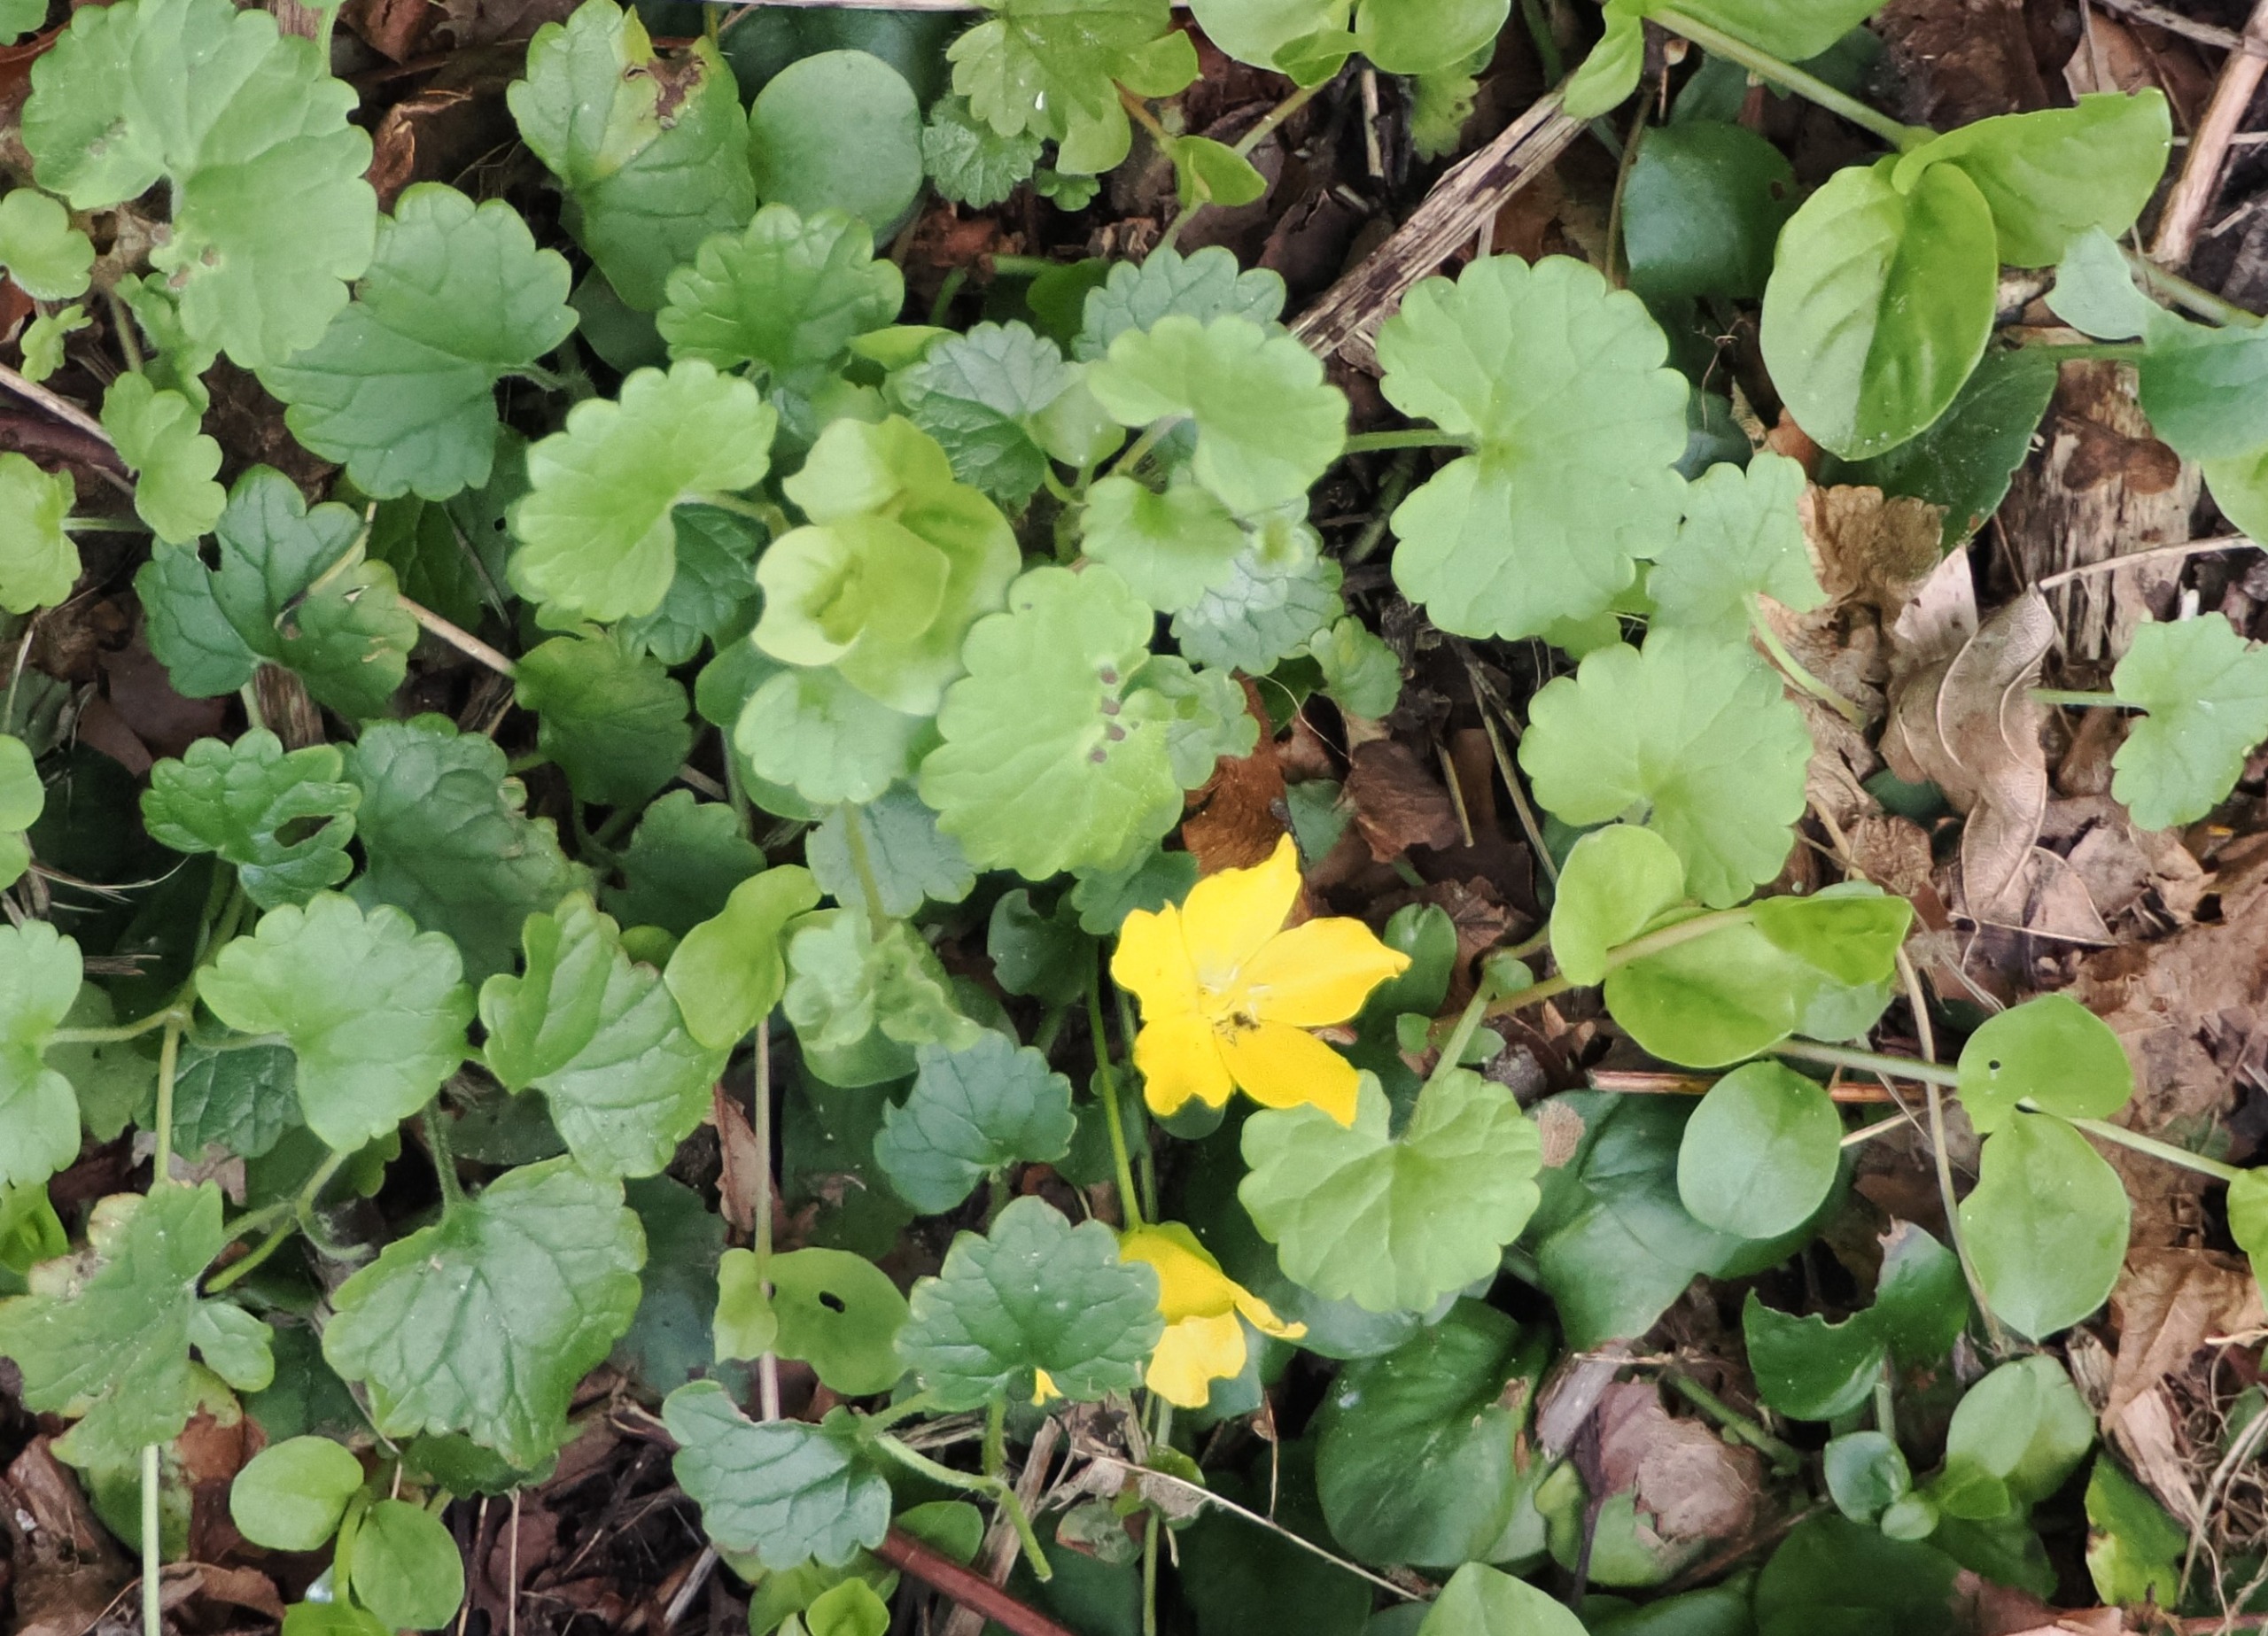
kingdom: Plantae
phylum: Tracheophyta
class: Magnoliopsida
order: Ericales
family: Primulaceae
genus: Lysimachia
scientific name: Lysimachia nummularia
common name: Pengebladet fredløs
